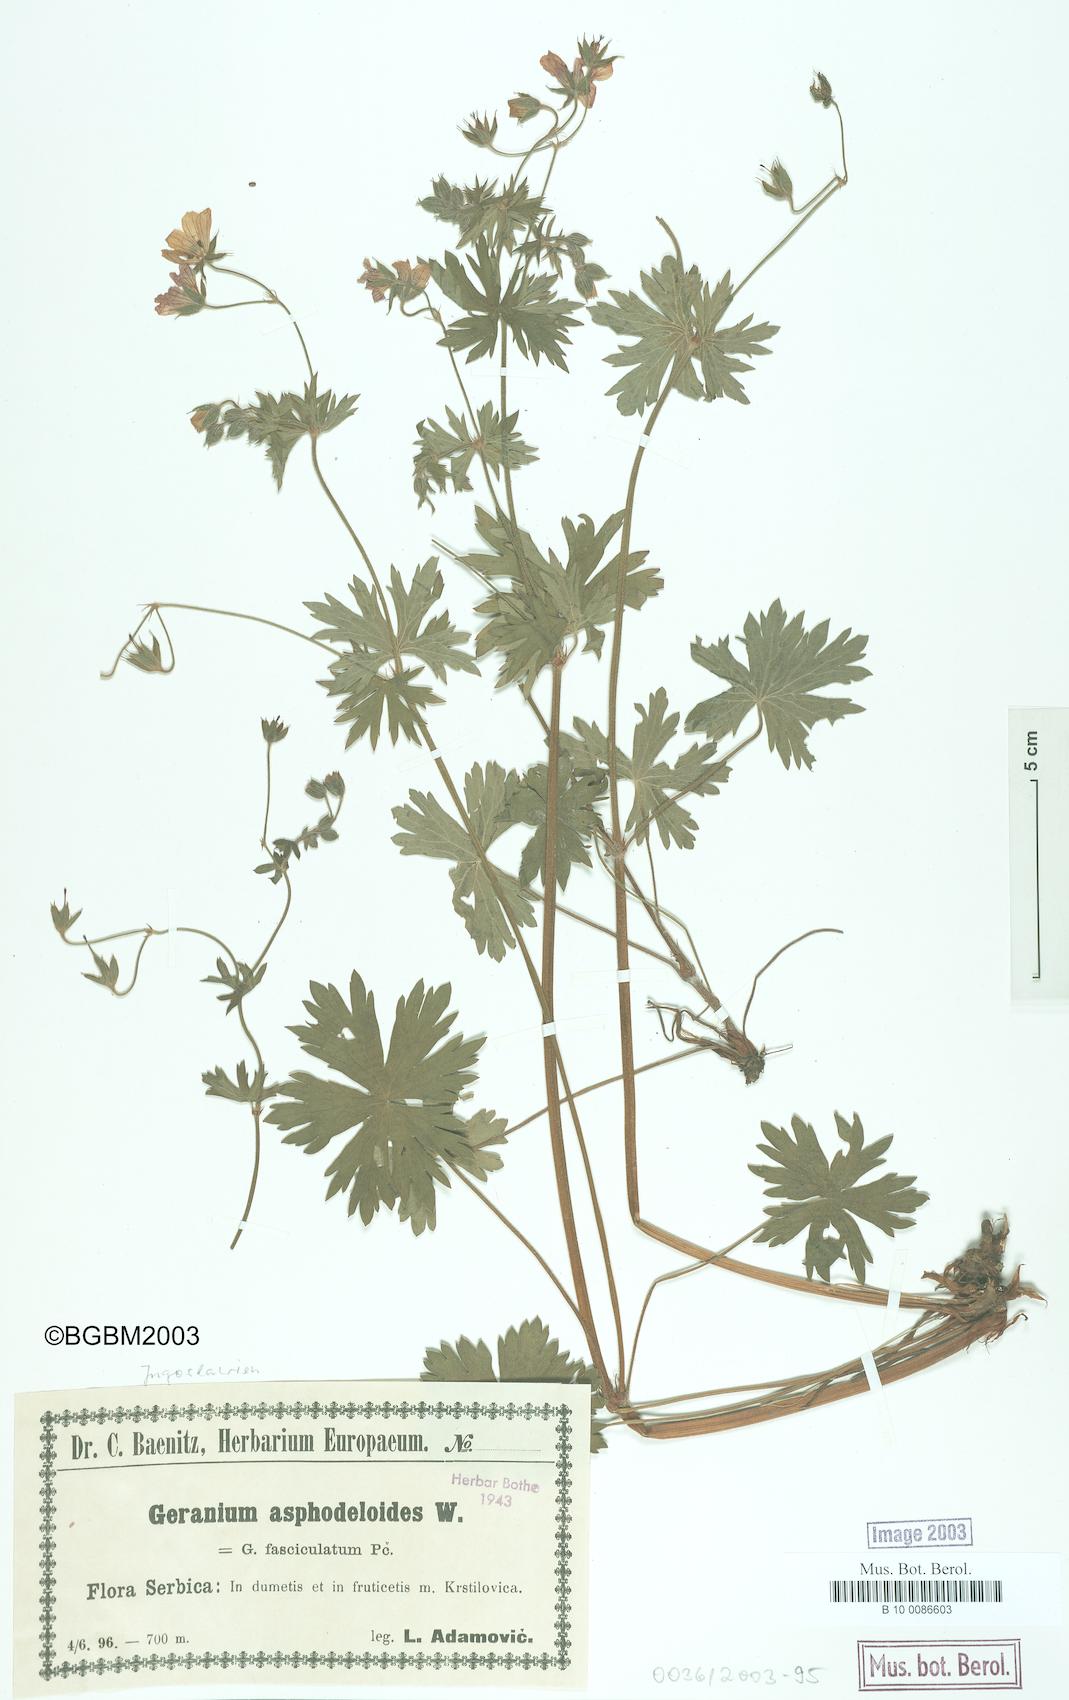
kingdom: Plantae
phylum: Tracheophyta
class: Magnoliopsida
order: Geraniales
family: Geraniaceae
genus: Geranium
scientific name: Geranium asphodeloides
